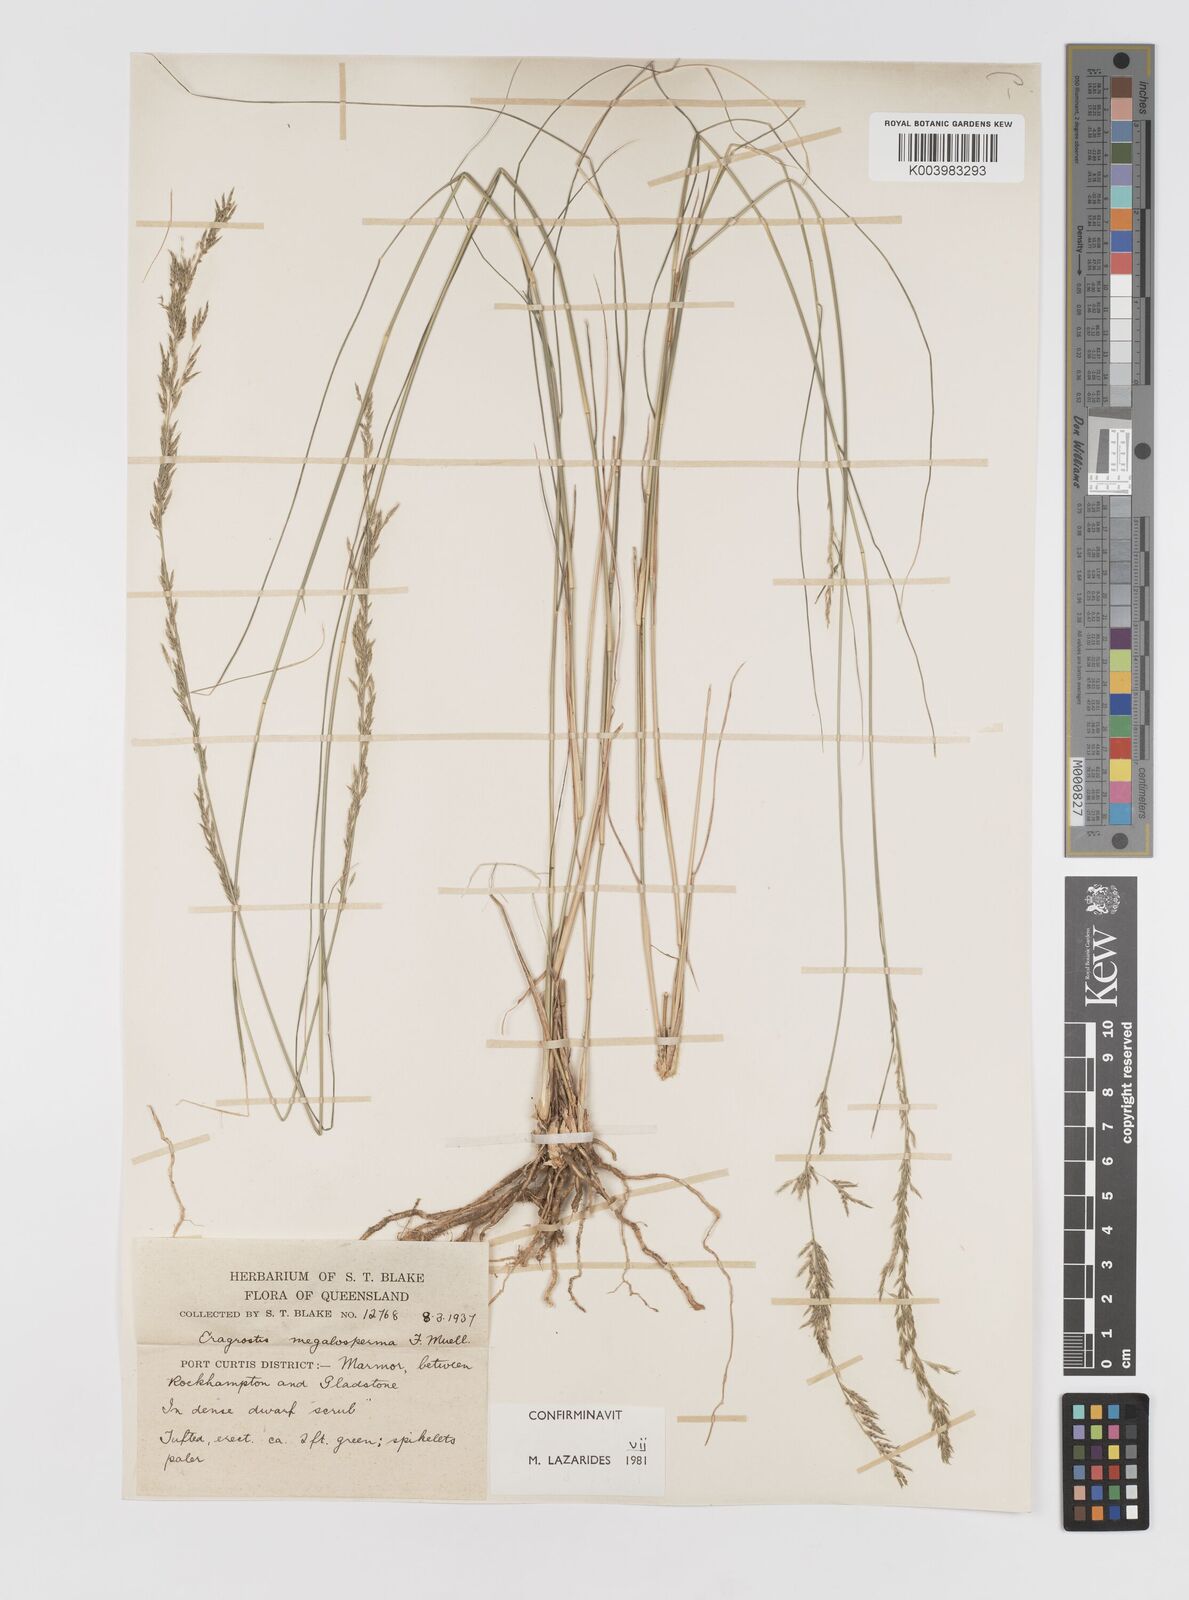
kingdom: Plantae
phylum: Tracheophyta
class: Liliopsida
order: Poales
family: Poaceae
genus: Sporobolus
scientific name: Sporobolus megalospermus
